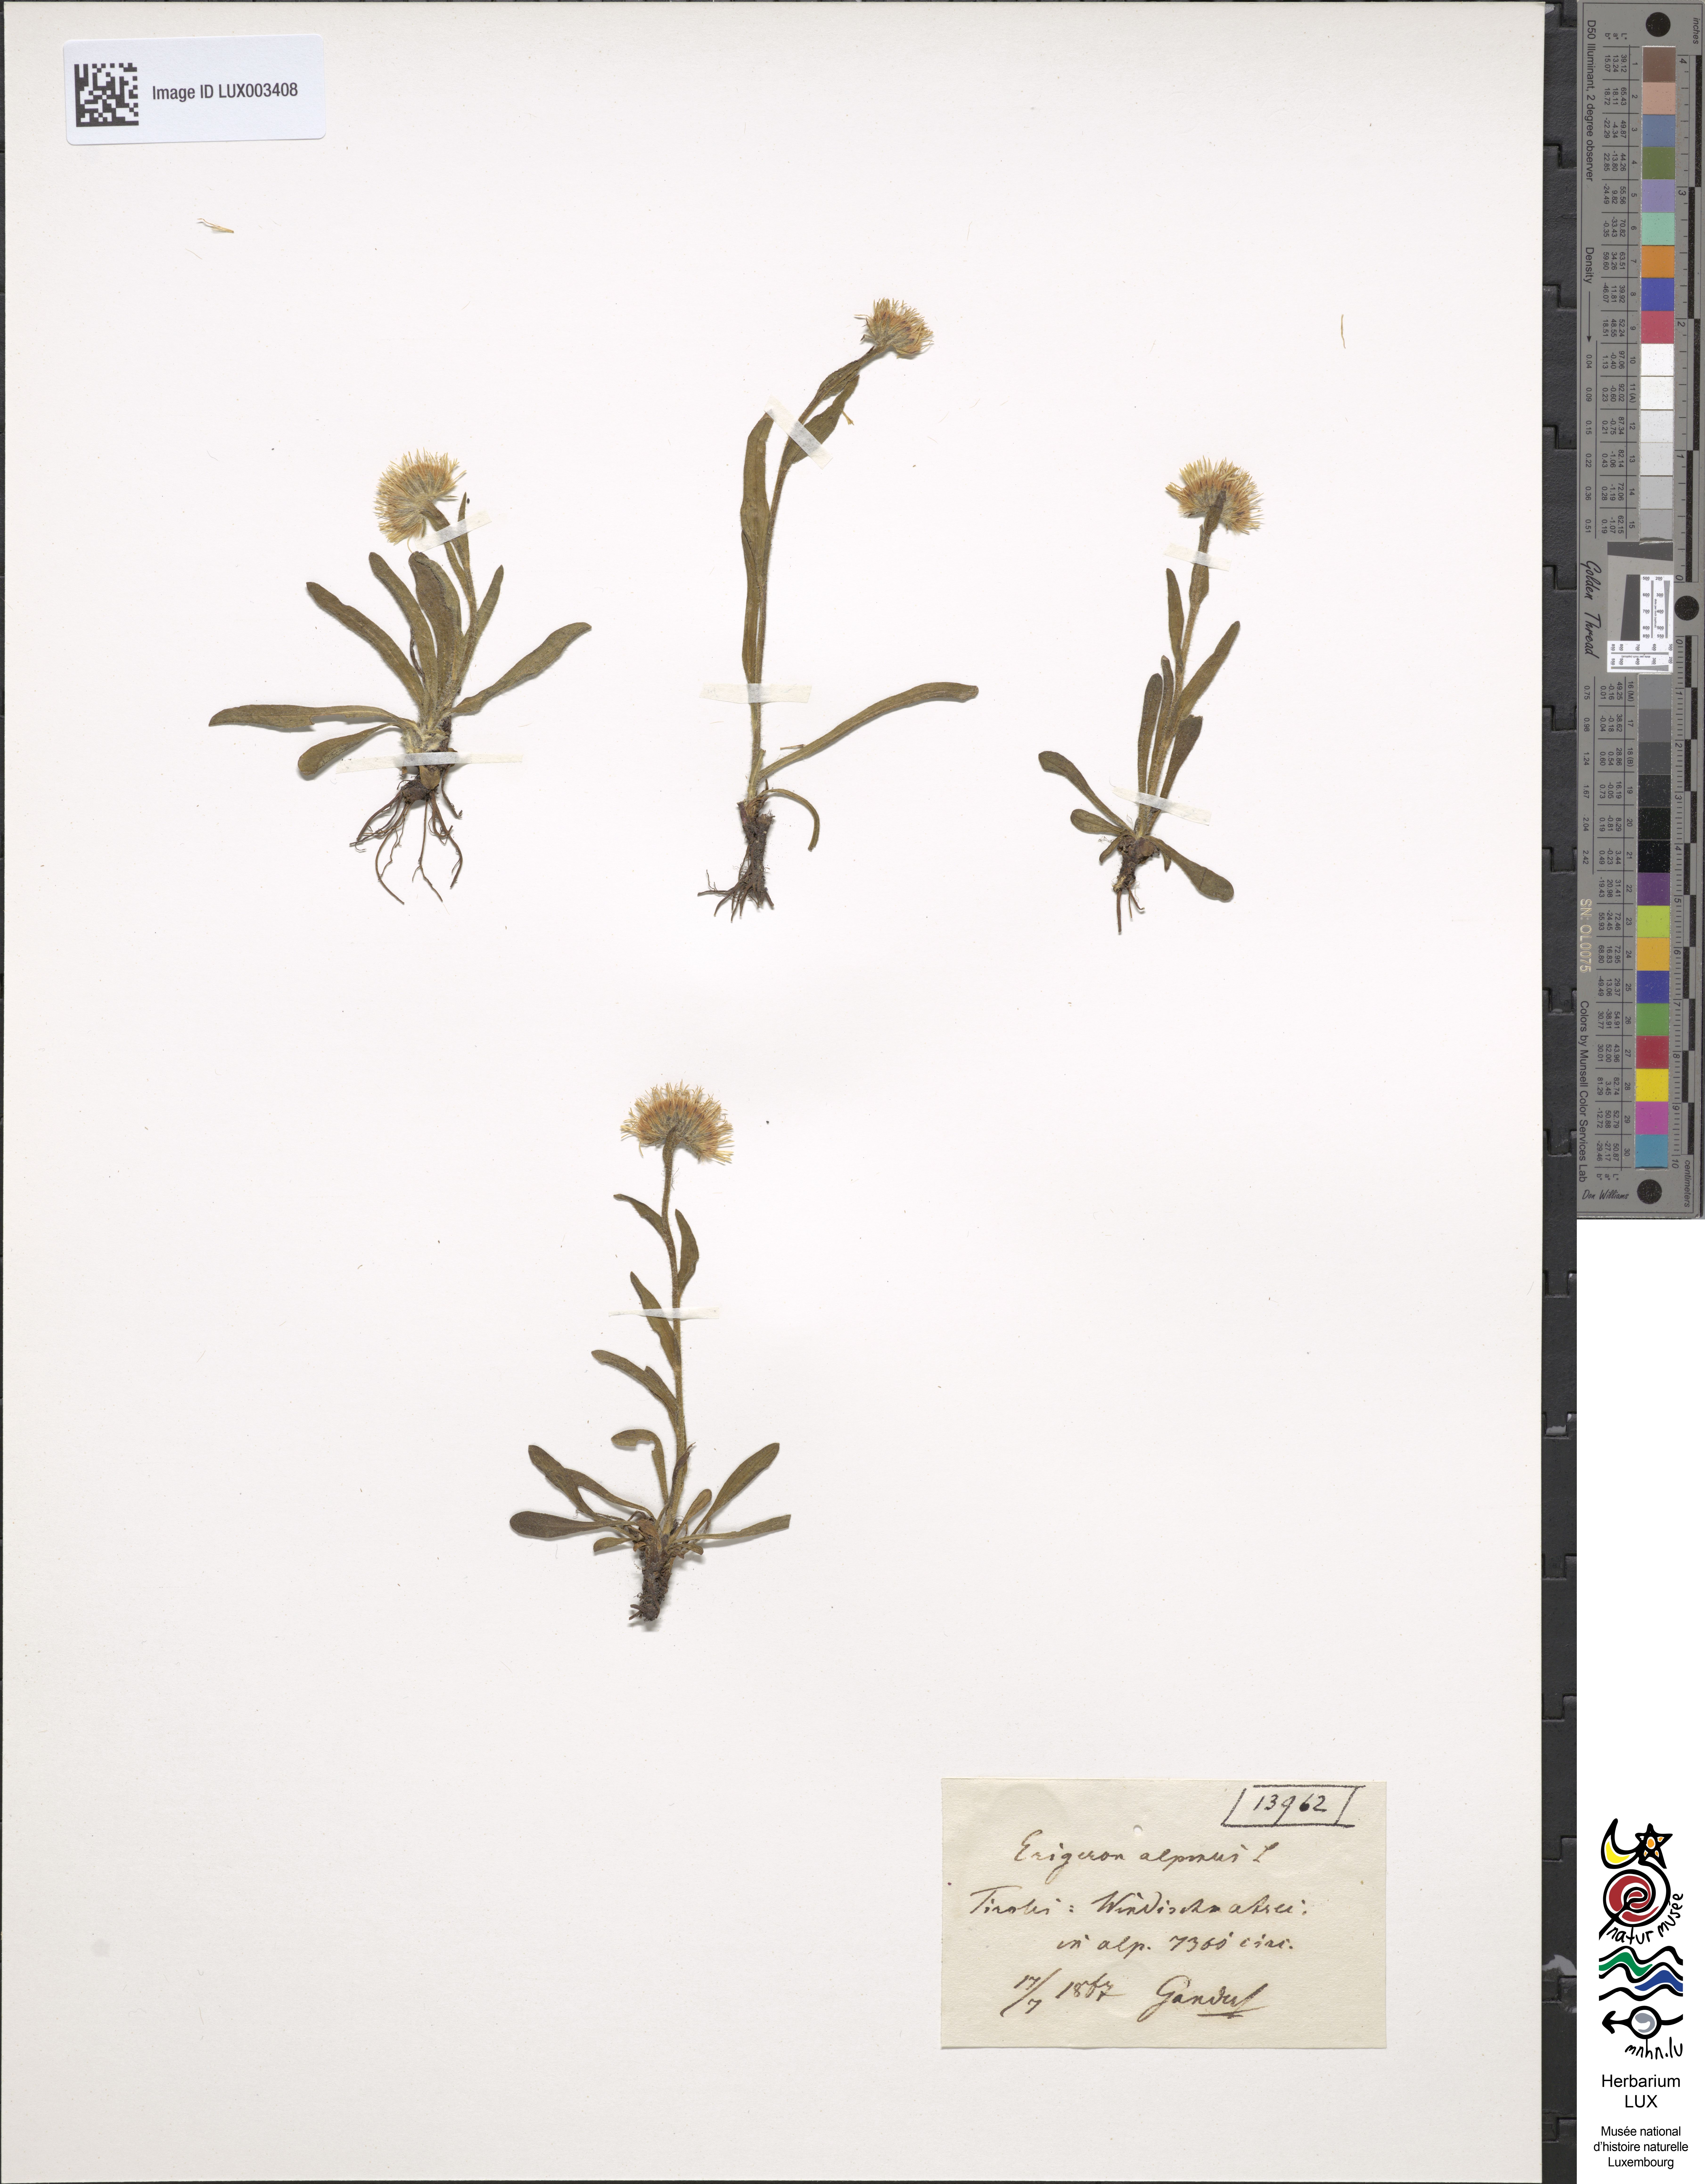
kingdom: Plantae
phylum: Tracheophyta
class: Magnoliopsida
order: Asterales
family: Asteraceae
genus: Erigeron
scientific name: Erigeron alpinus
